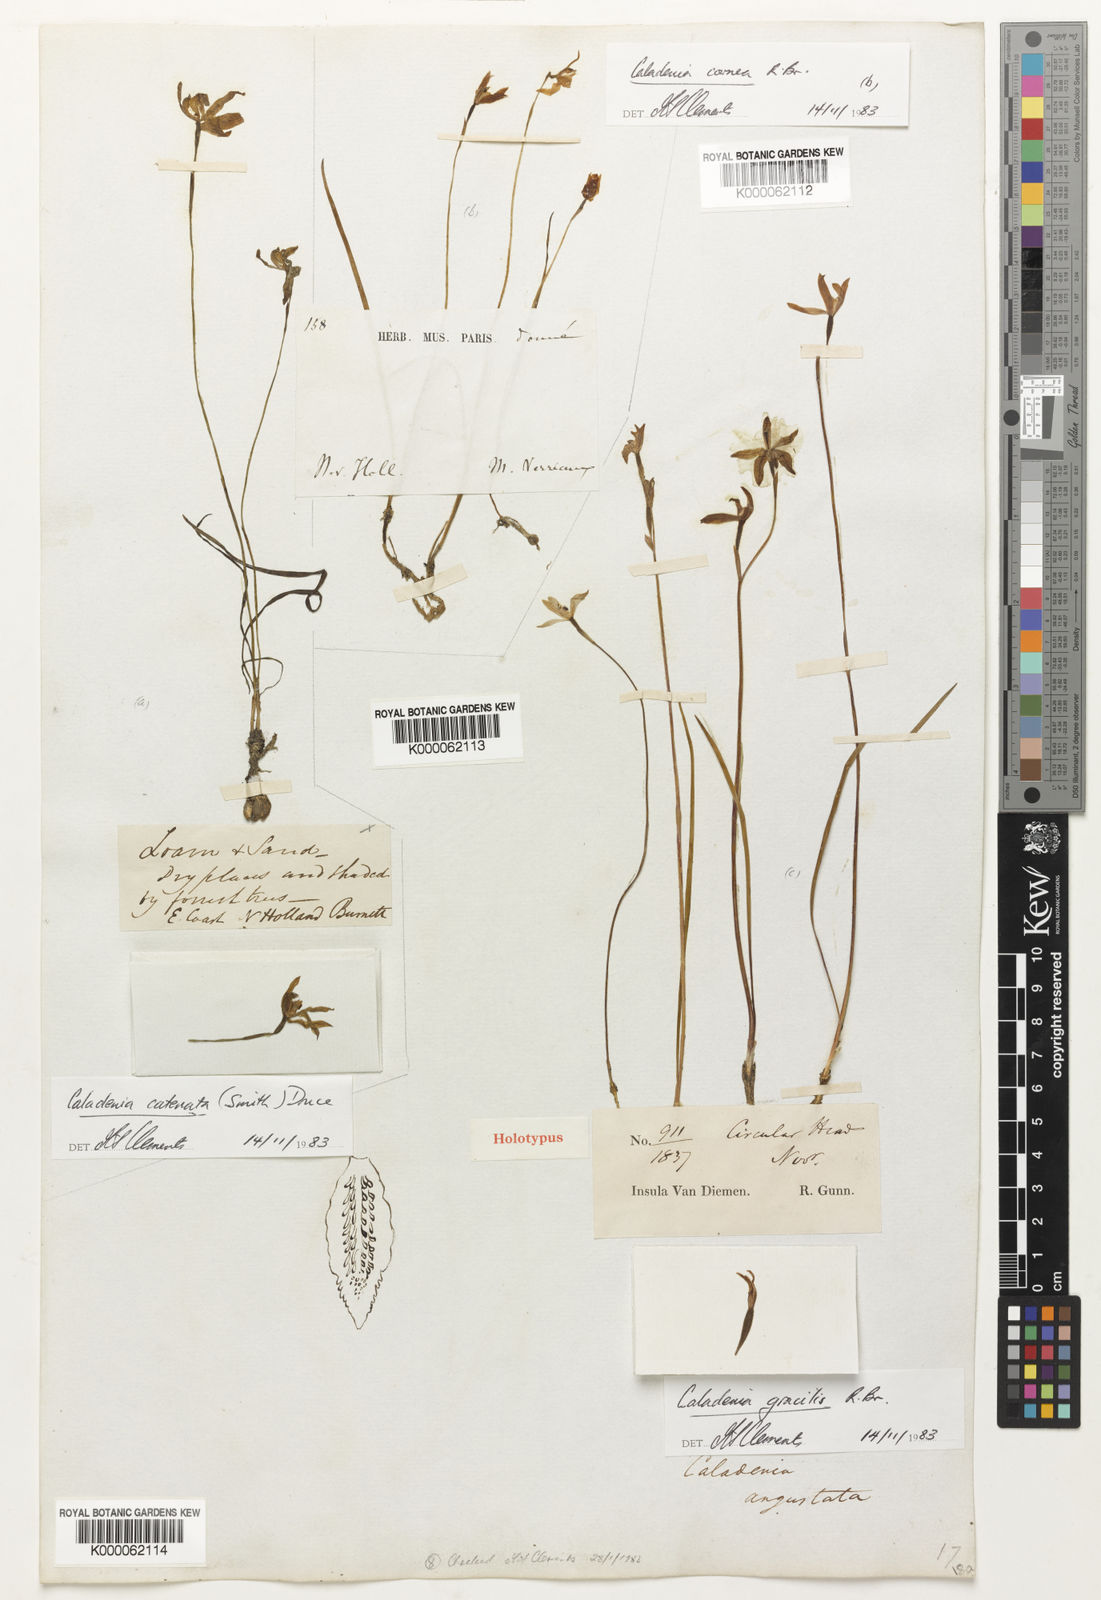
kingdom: Plantae
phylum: Tracheophyta
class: Liliopsida
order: Asparagales
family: Orchidaceae
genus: Caladenia
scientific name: Caladenia angustata
